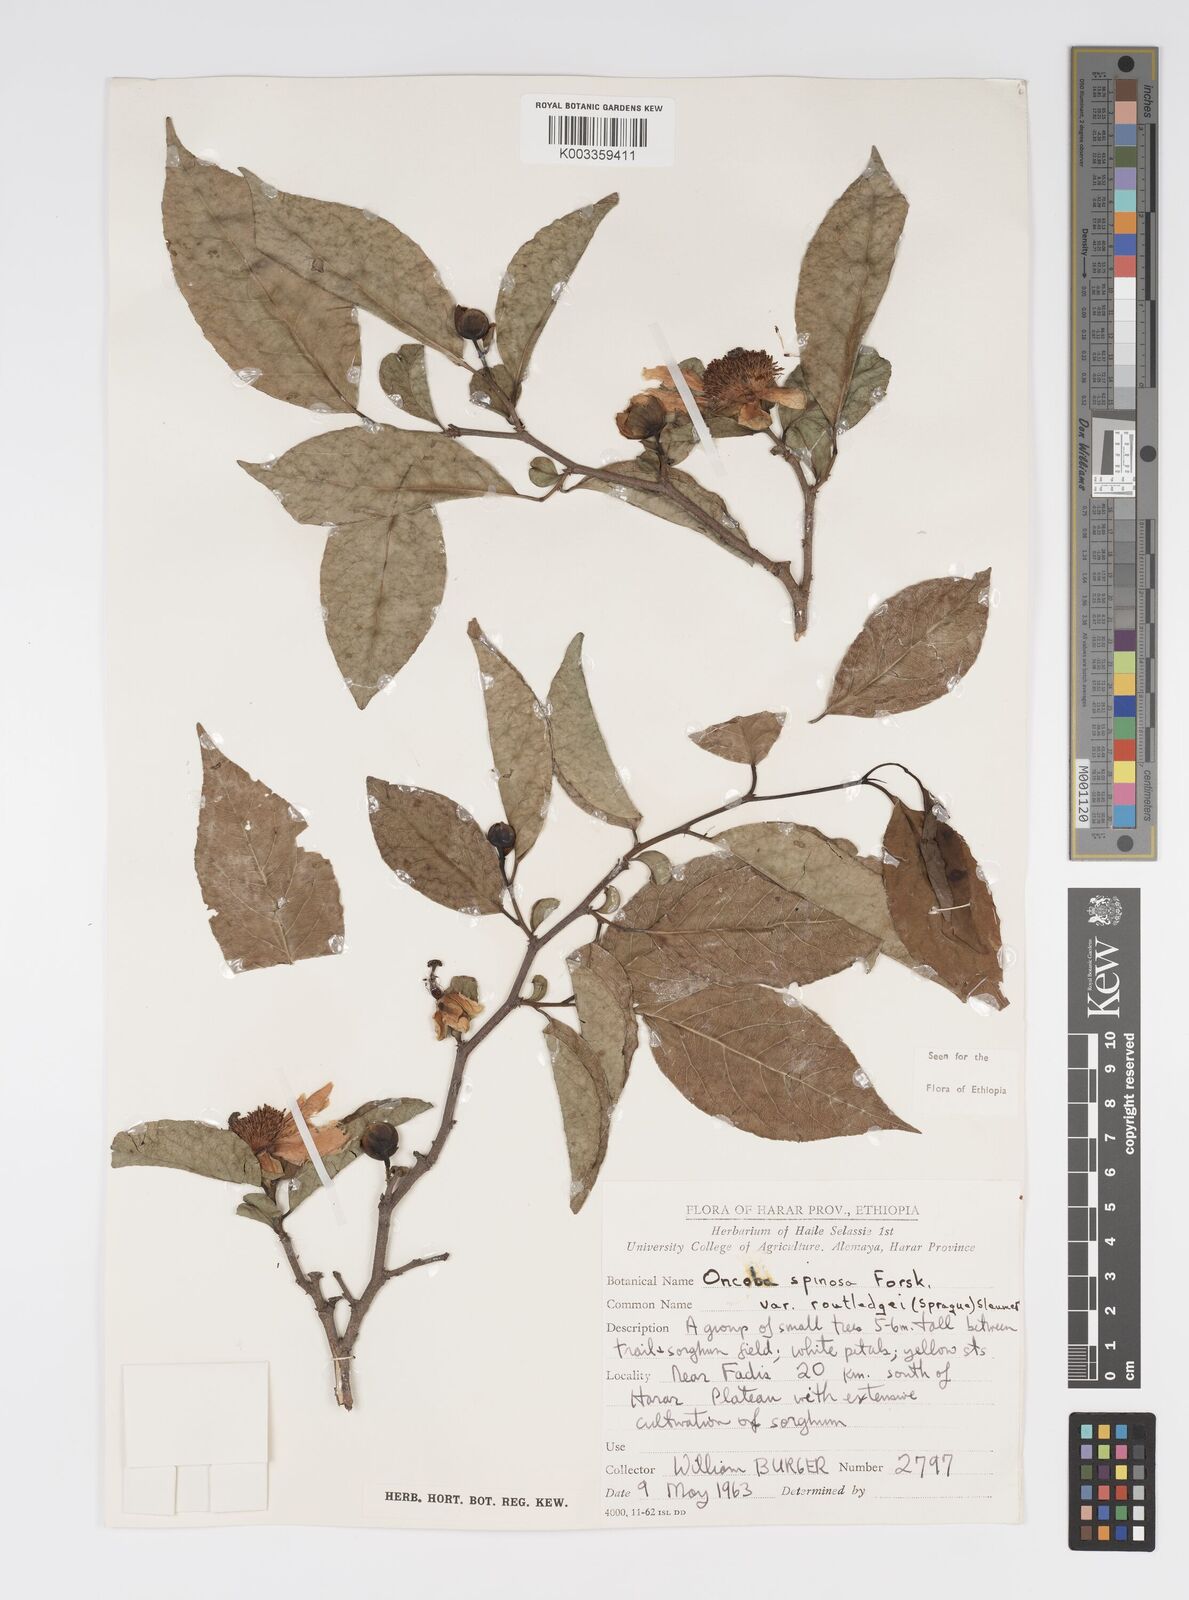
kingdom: Plantae
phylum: Tracheophyta
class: Magnoliopsida
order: Malpighiales
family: Salicaceae
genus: Oncoba
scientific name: Oncoba routledgei
